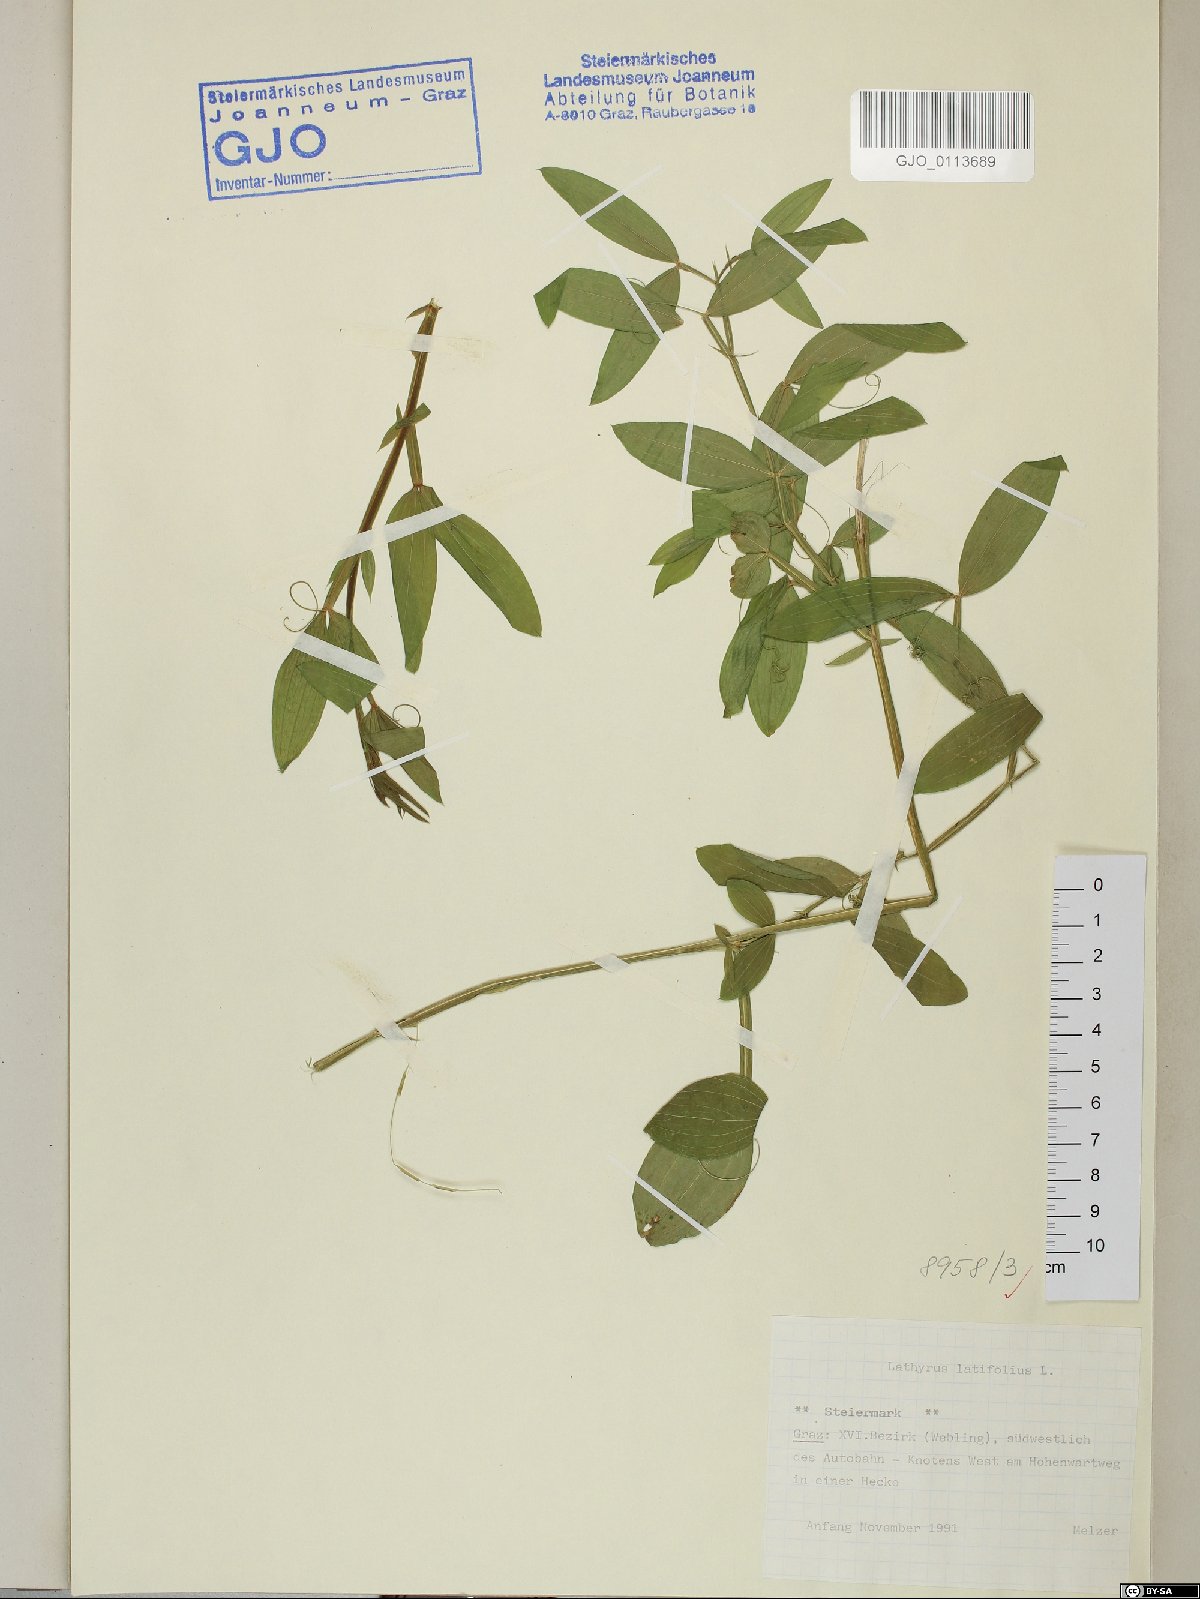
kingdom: Plantae
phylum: Tracheophyta
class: Magnoliopsida
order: Fabales
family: Fabaceae
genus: Lathyrus
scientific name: Lathyrus latifolius
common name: Perennial pea
